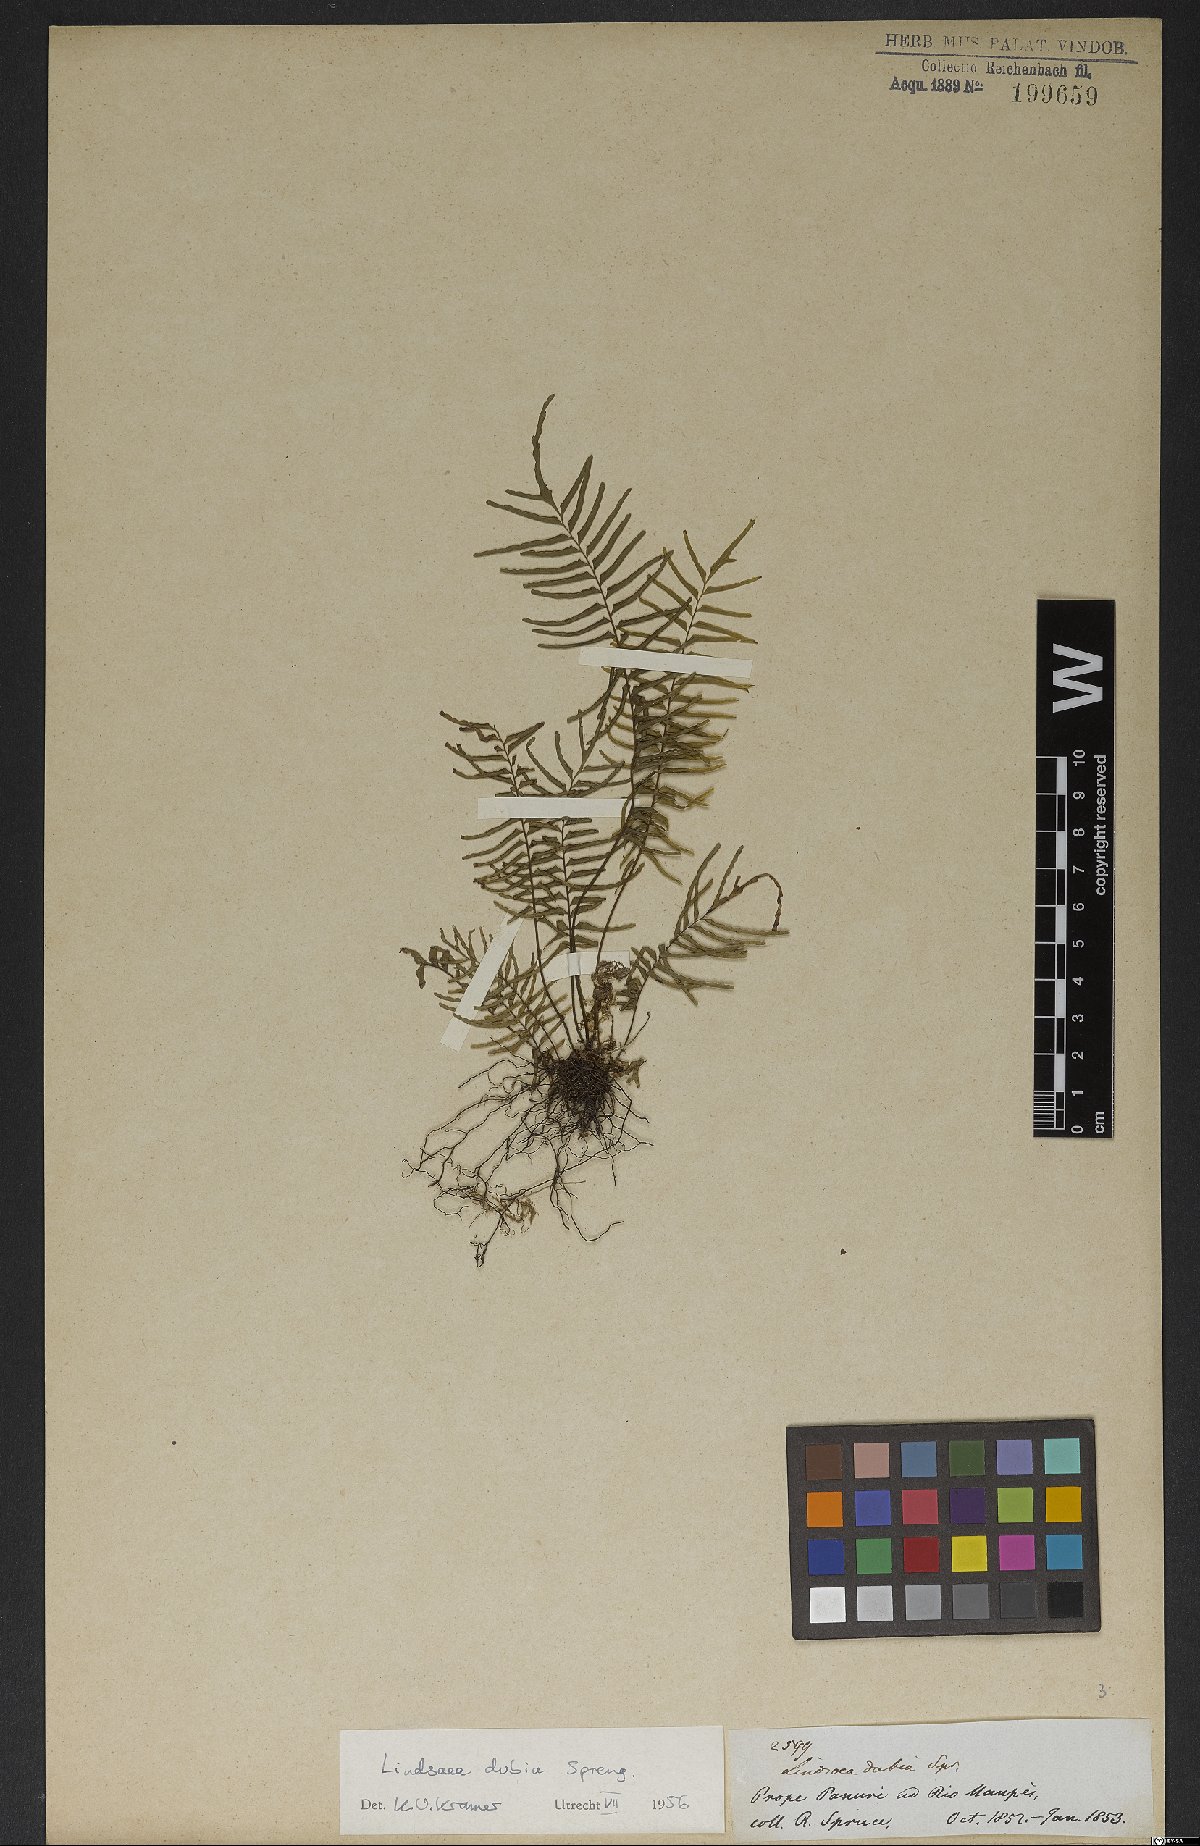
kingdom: Plantae
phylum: Tracheophyta
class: Polypodiopsida
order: Polypodiales
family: Lindsaeaceae
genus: Lindsaea
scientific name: Lindsaea dubia
